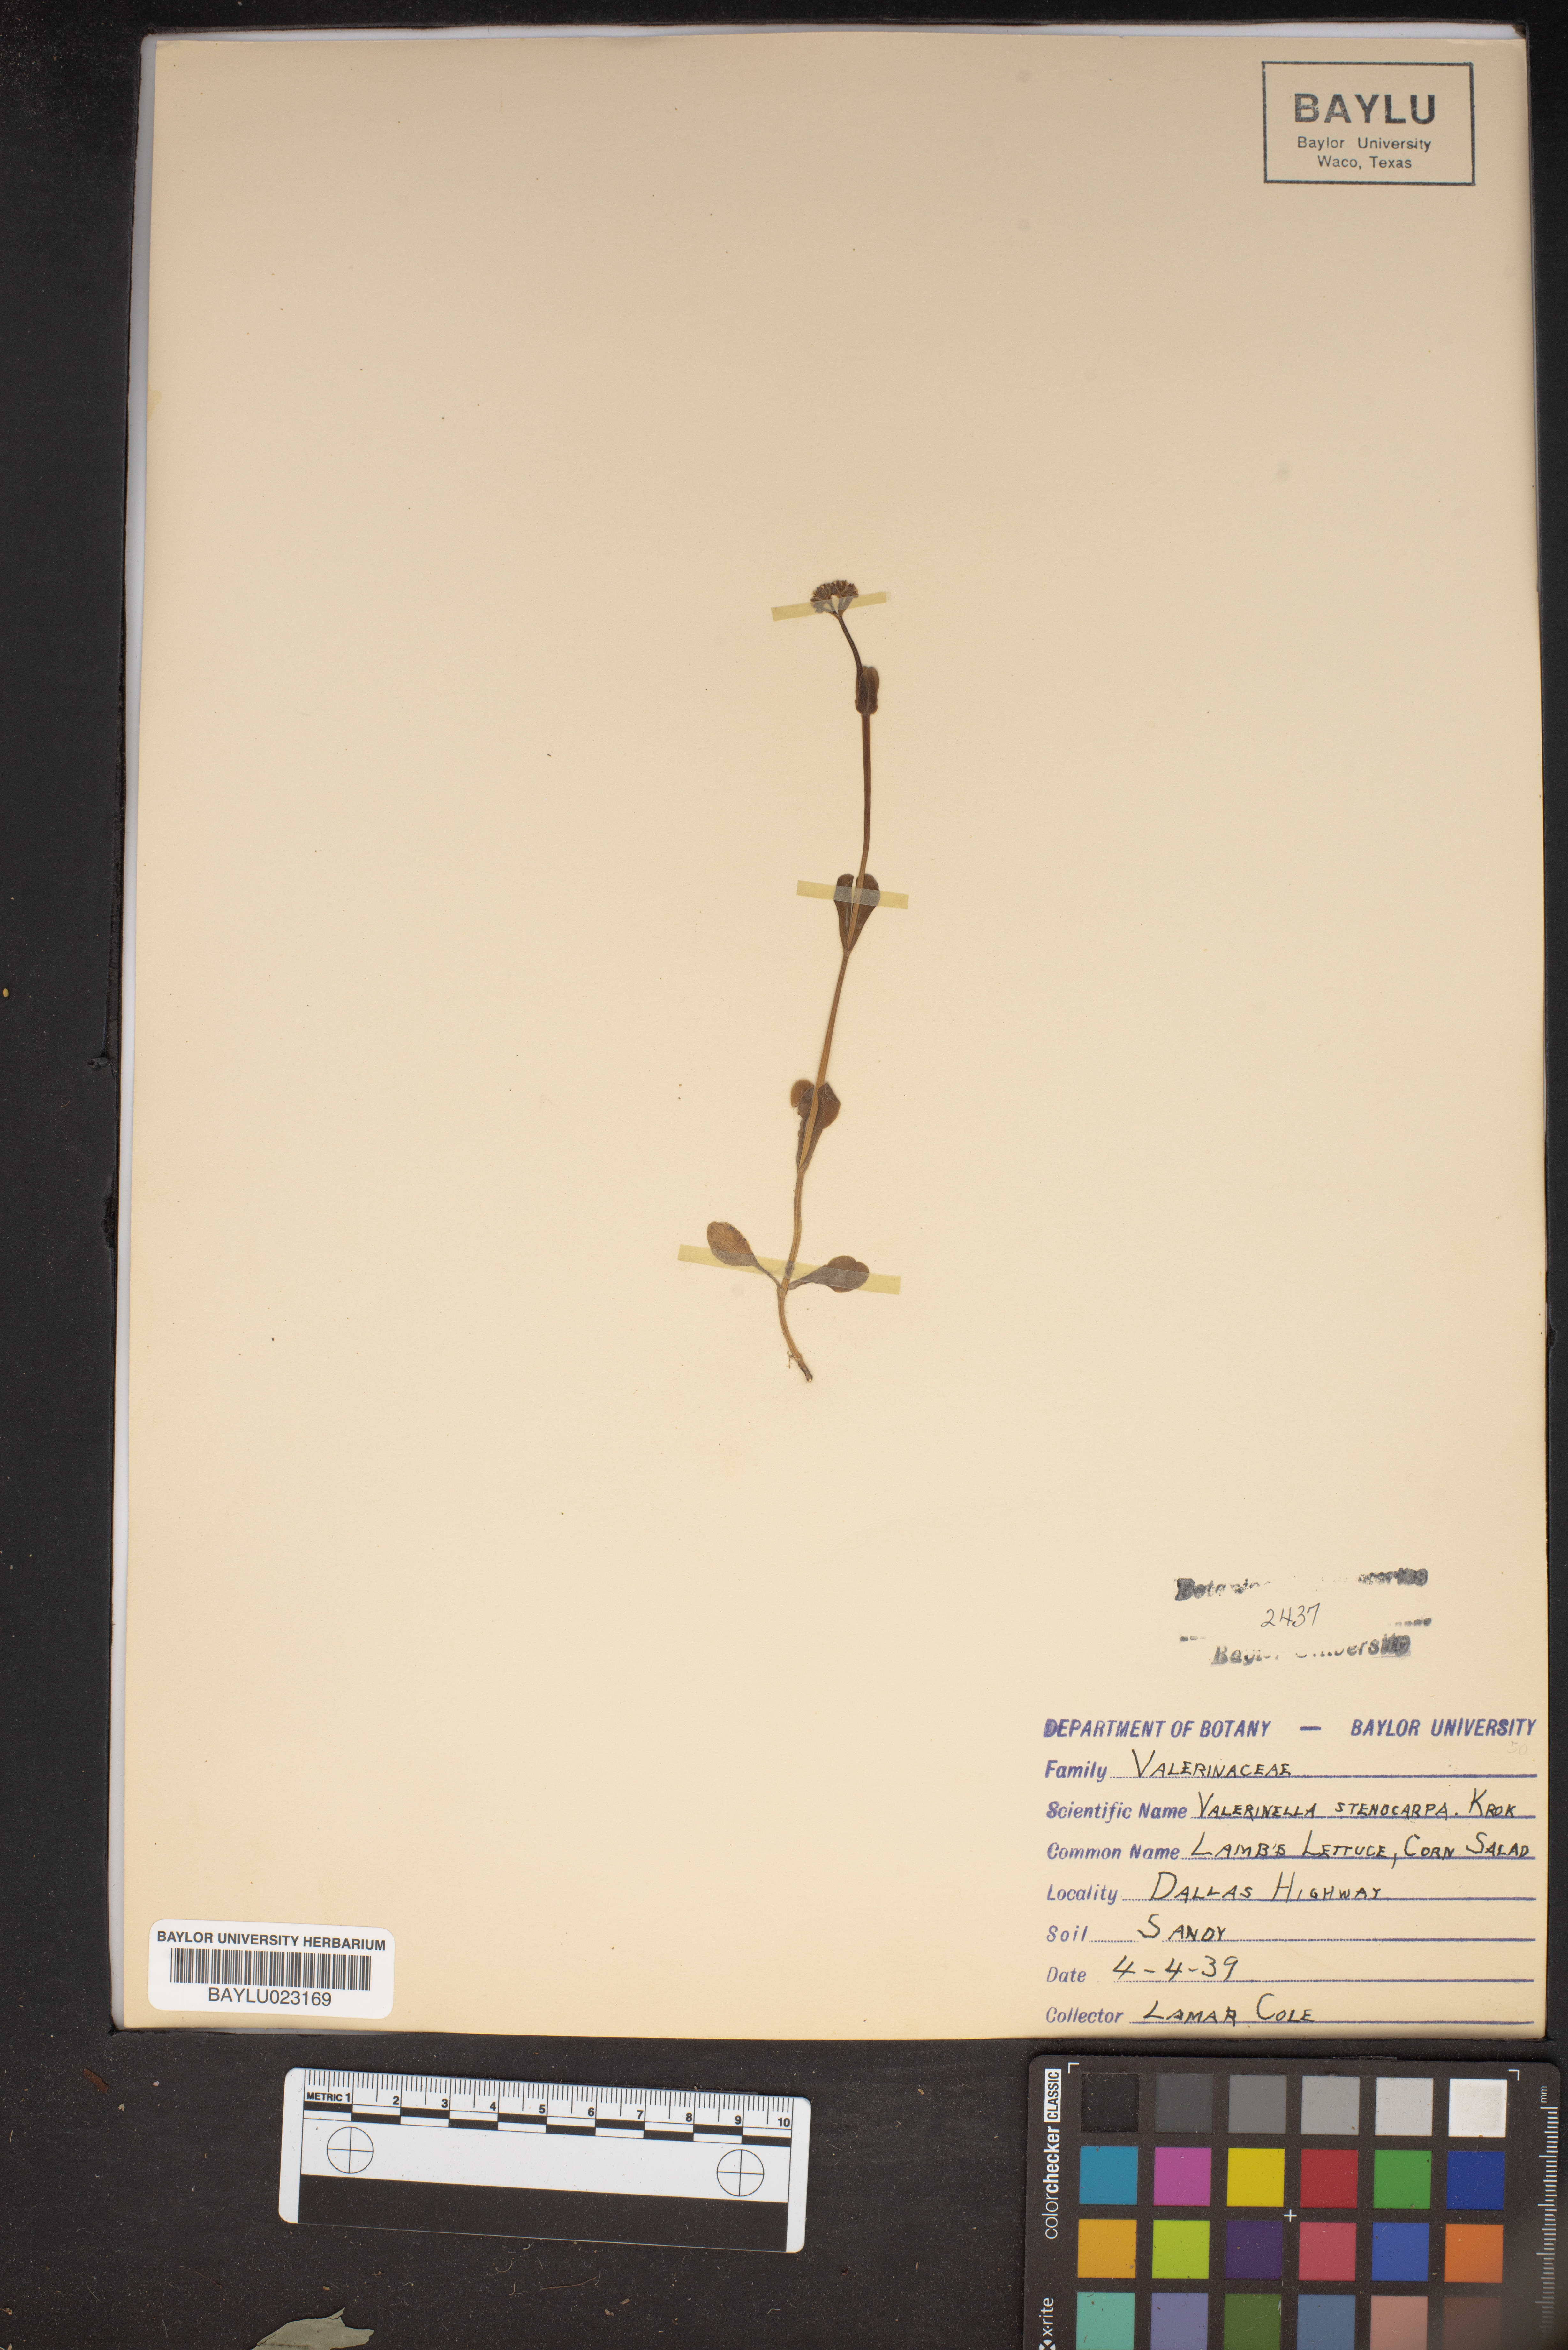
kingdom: Plantae
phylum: Tracheophyta
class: Magnoliopsida
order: Dipsacales
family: Caprifoliaceae
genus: Valerianella
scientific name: Valerianella stenocarpa
